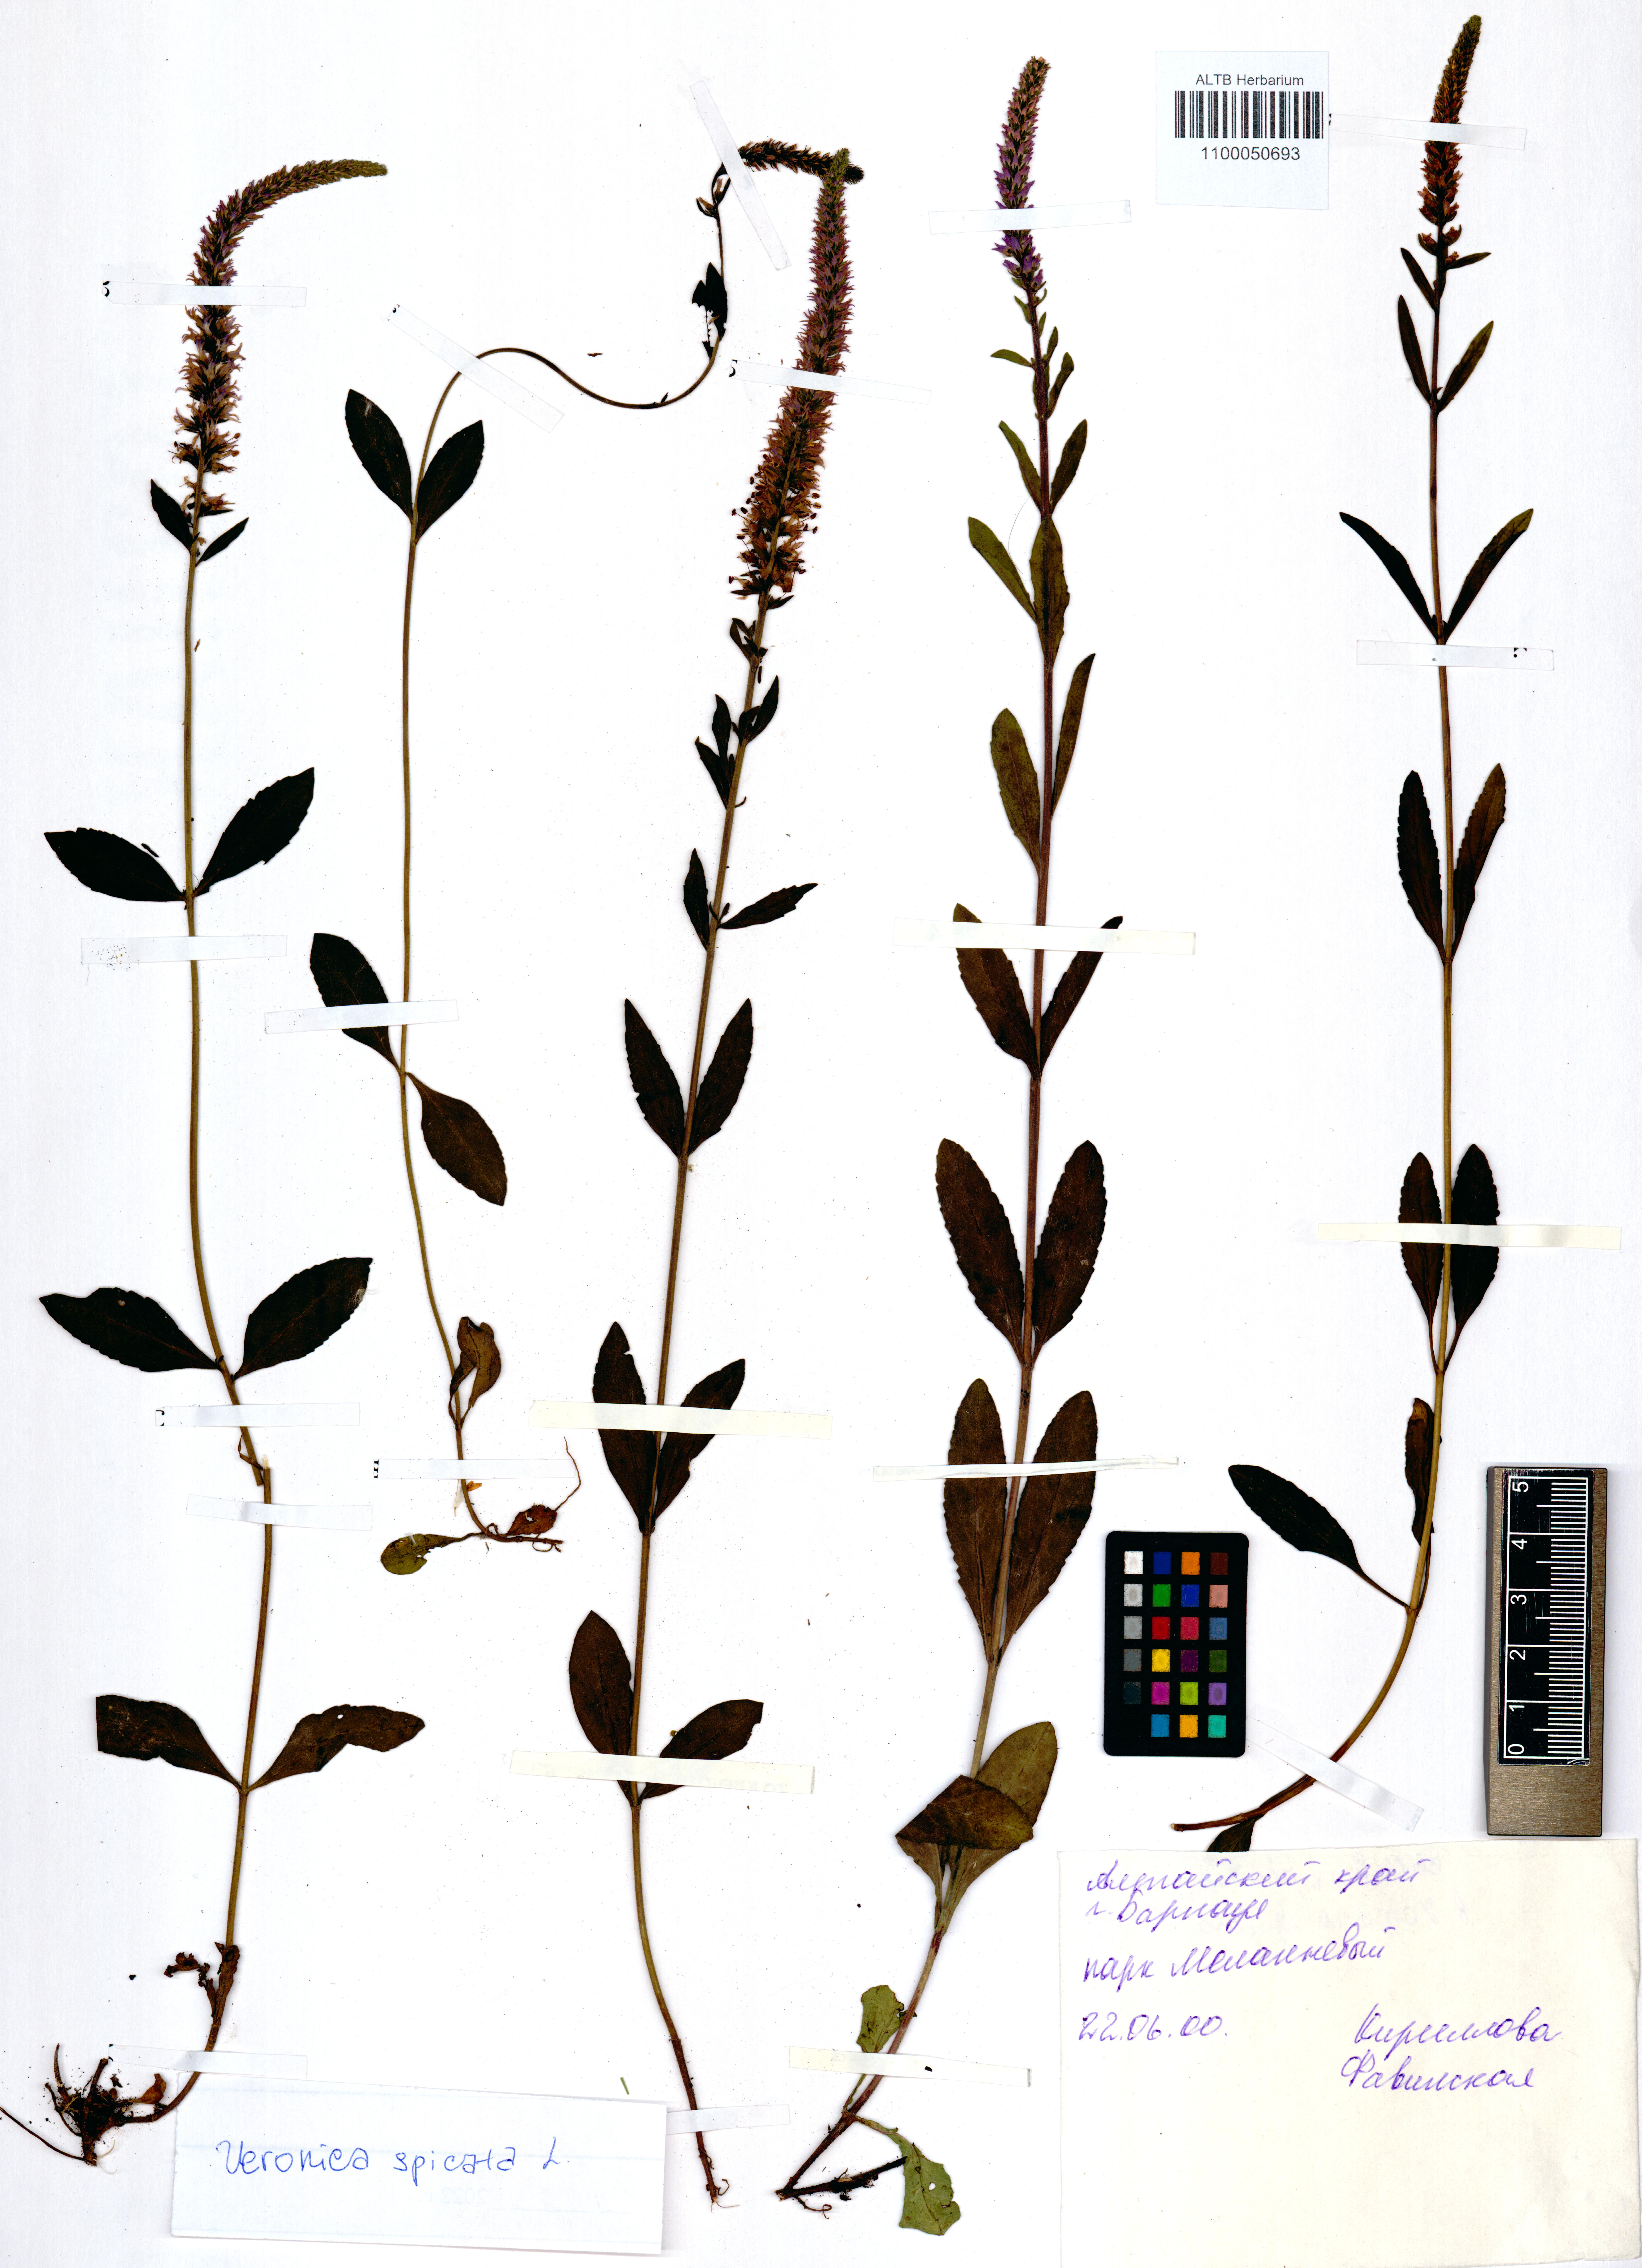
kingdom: Plantae
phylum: Tracheophyta
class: Magnoliopsida
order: Lamiales
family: Plantaginaceae
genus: Veronica
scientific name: Veronica spicata
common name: Spiked speedwell
